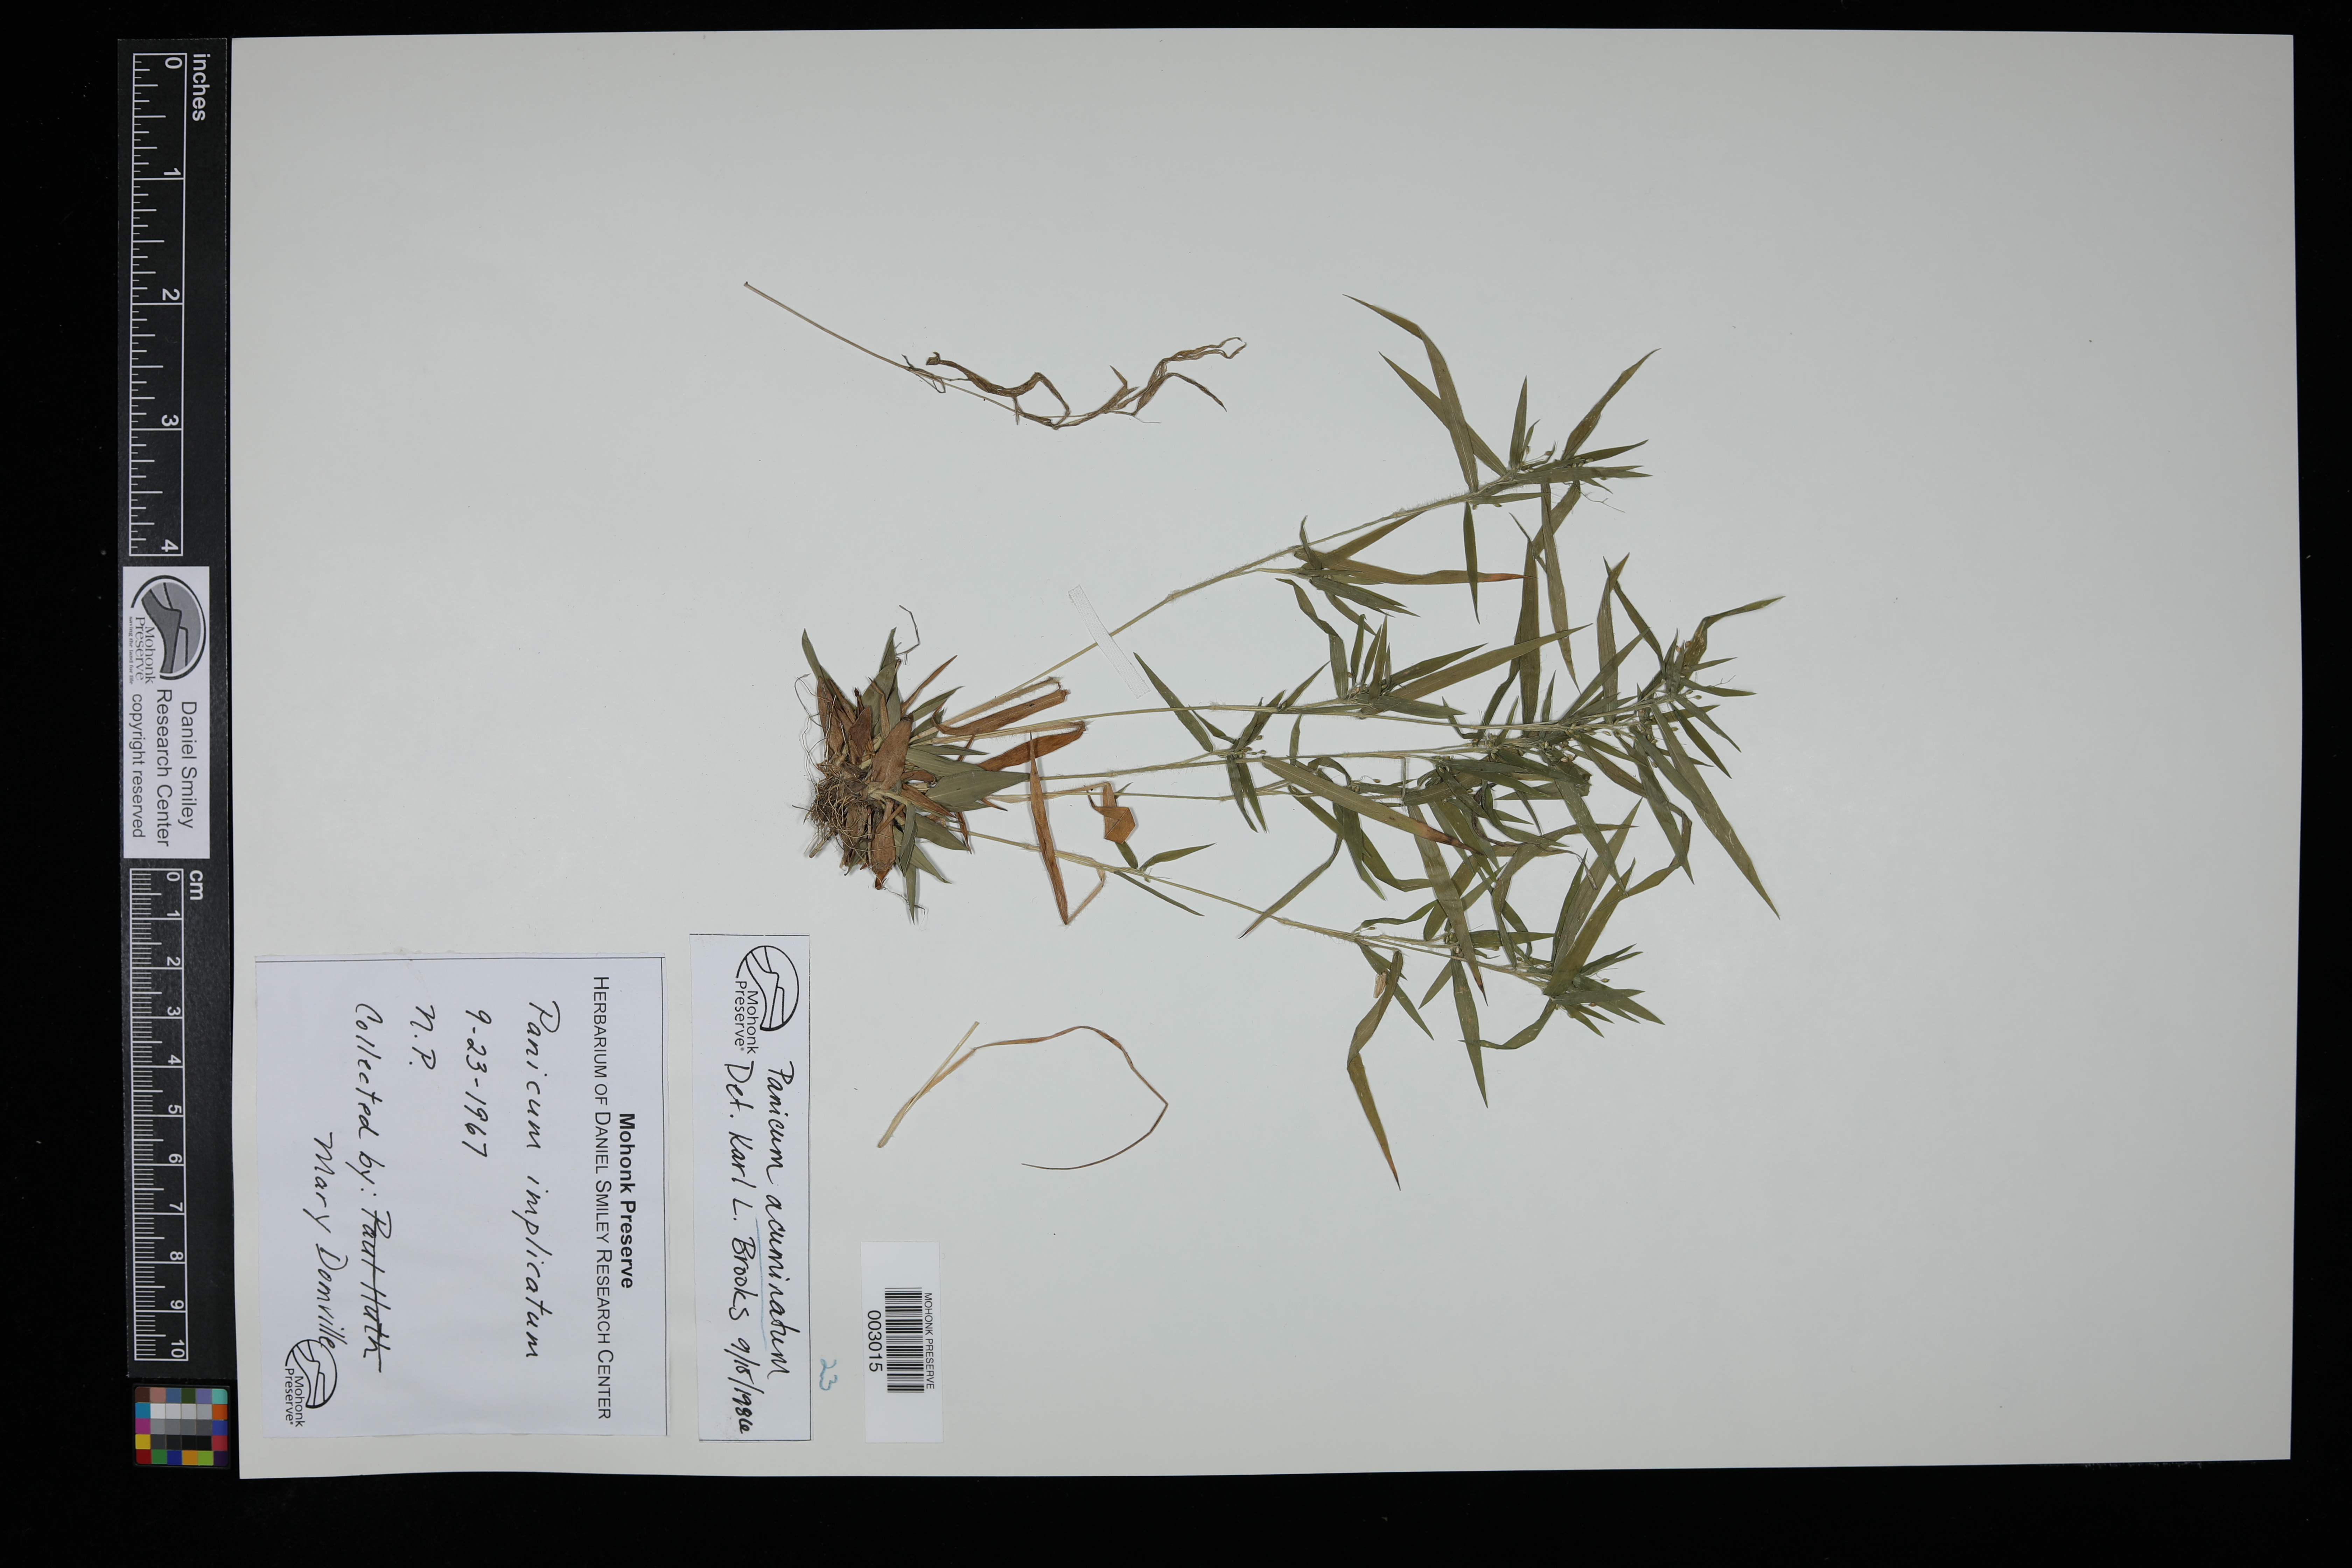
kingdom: Plantae
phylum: Tracheophyta
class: Liliopsida
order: Poales
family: Poaceae
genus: Dichanthelium
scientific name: Dichanthelium acuminatum
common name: Hairy panic grass
